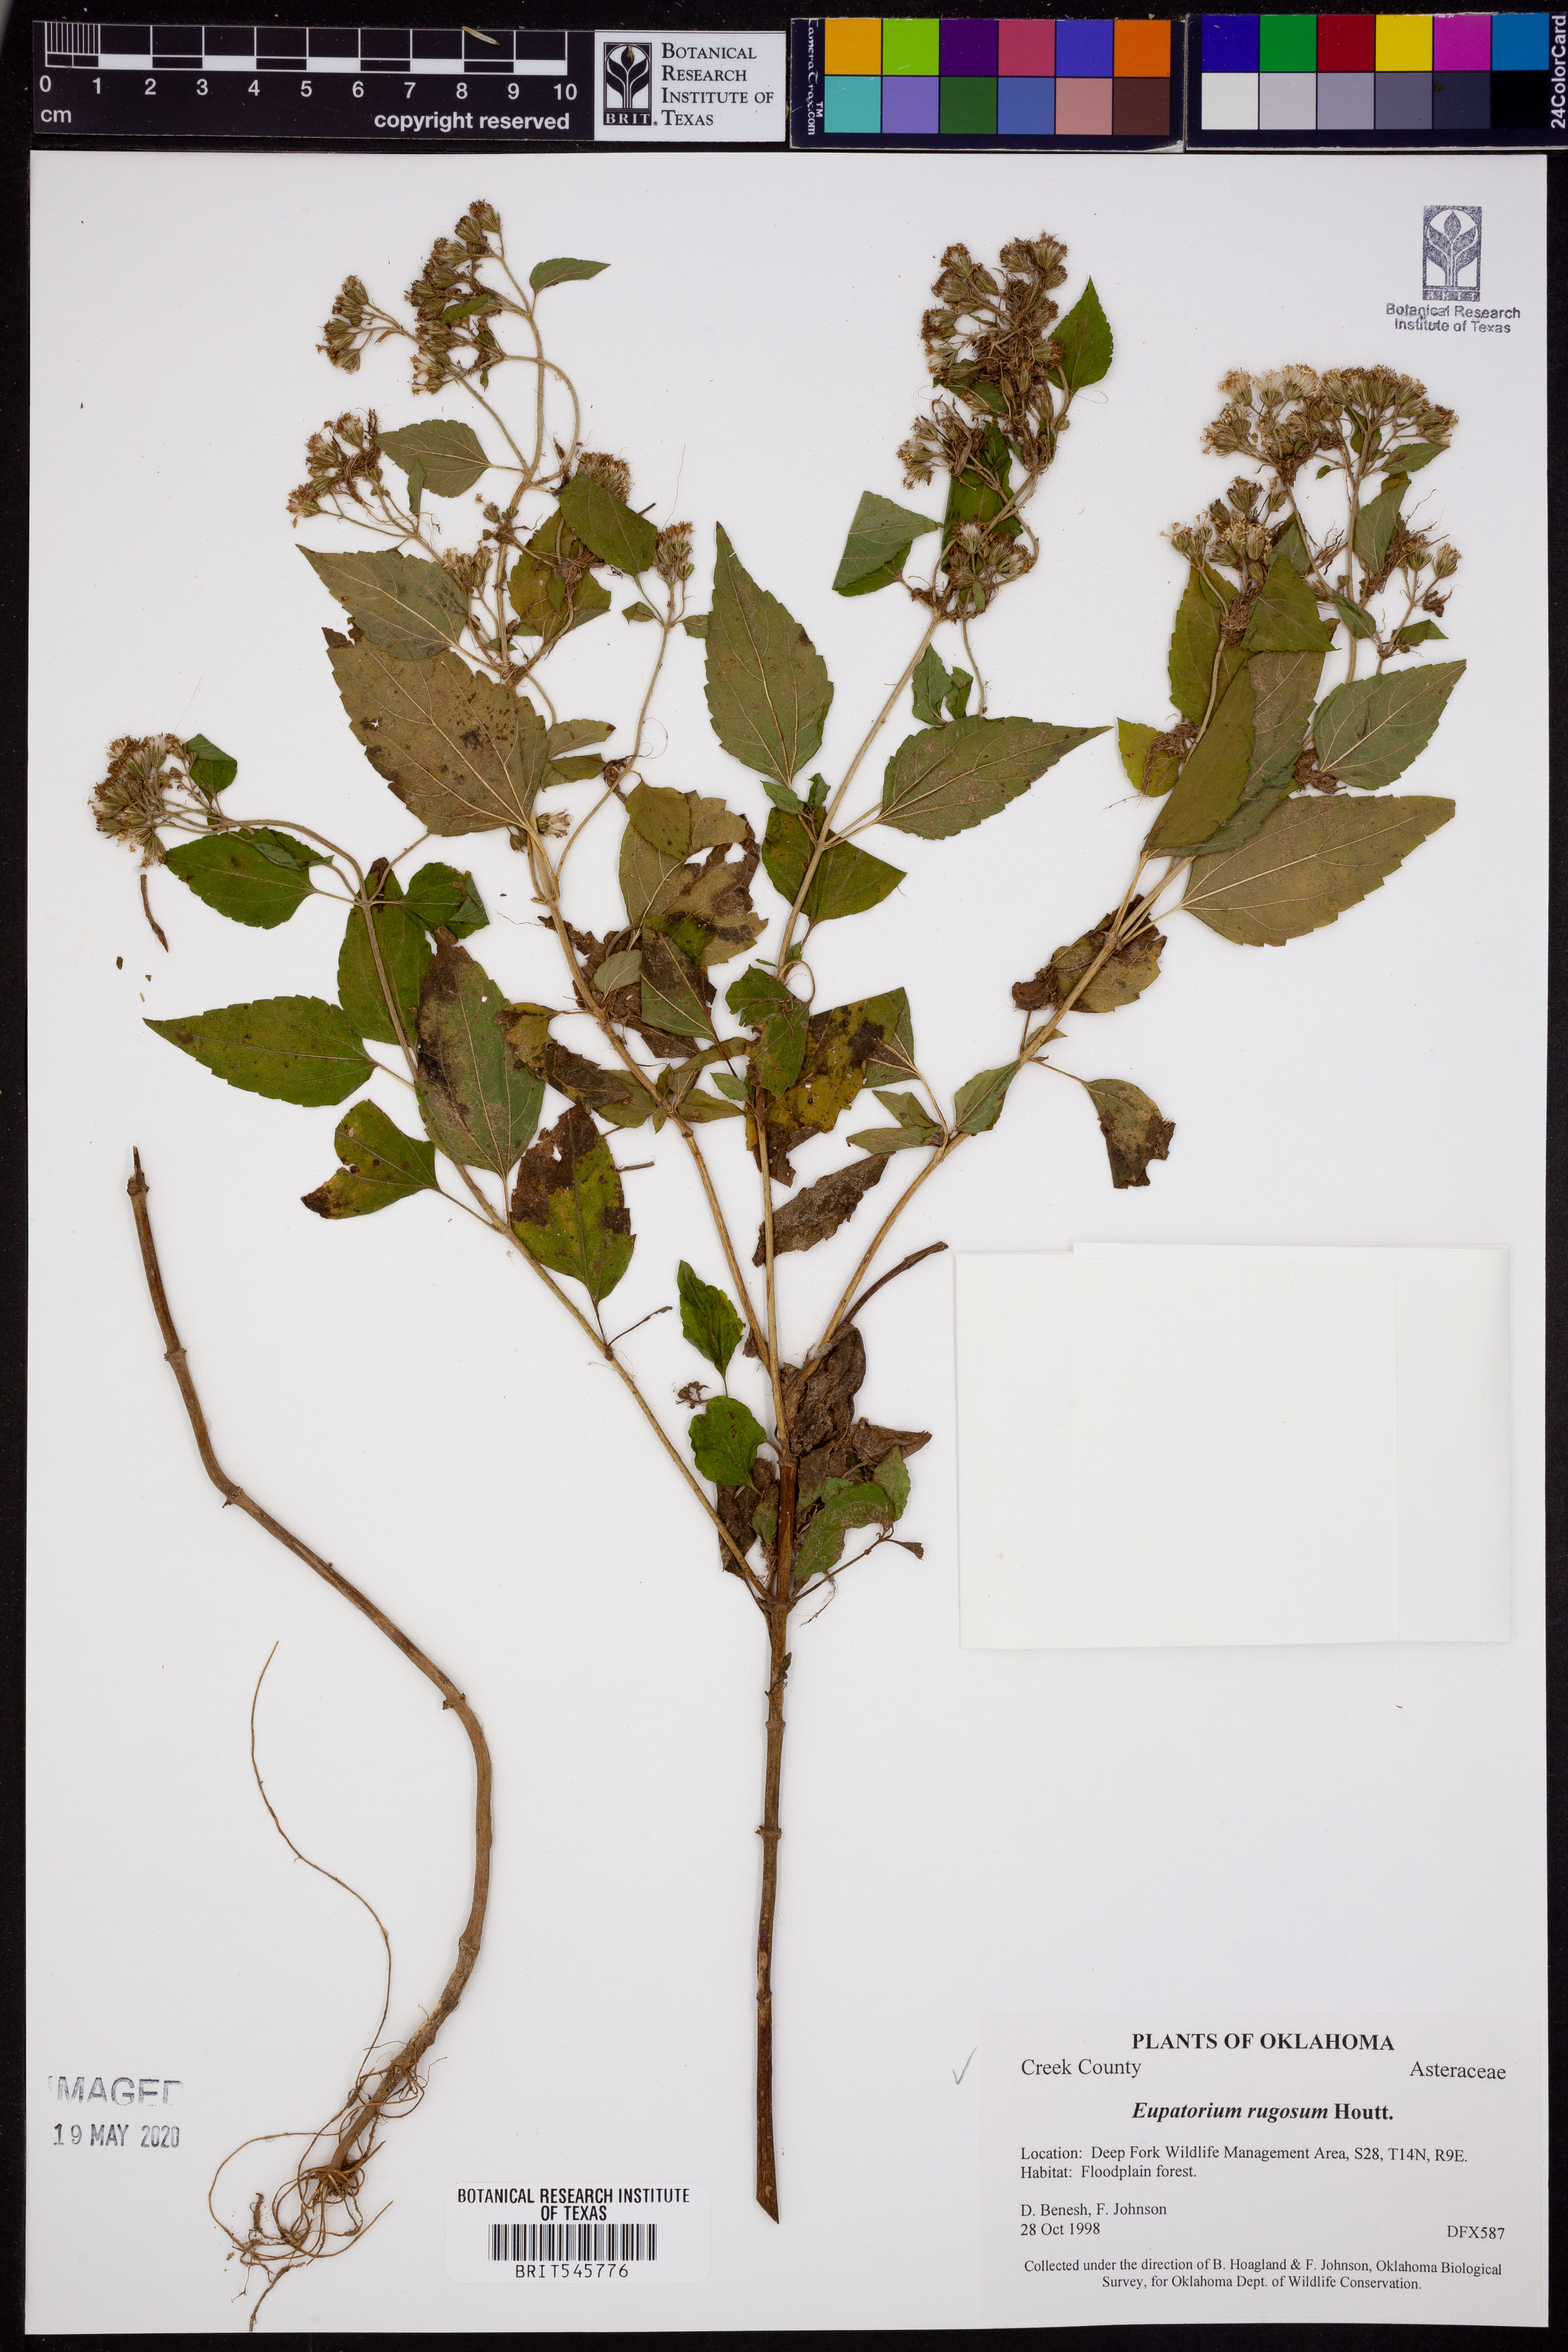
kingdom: Plantae
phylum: Tracheophyta
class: Magnoliopsida
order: Asterales
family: Asteraceae
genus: Cronquistianthus
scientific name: Cronquistianthus bulliferus
